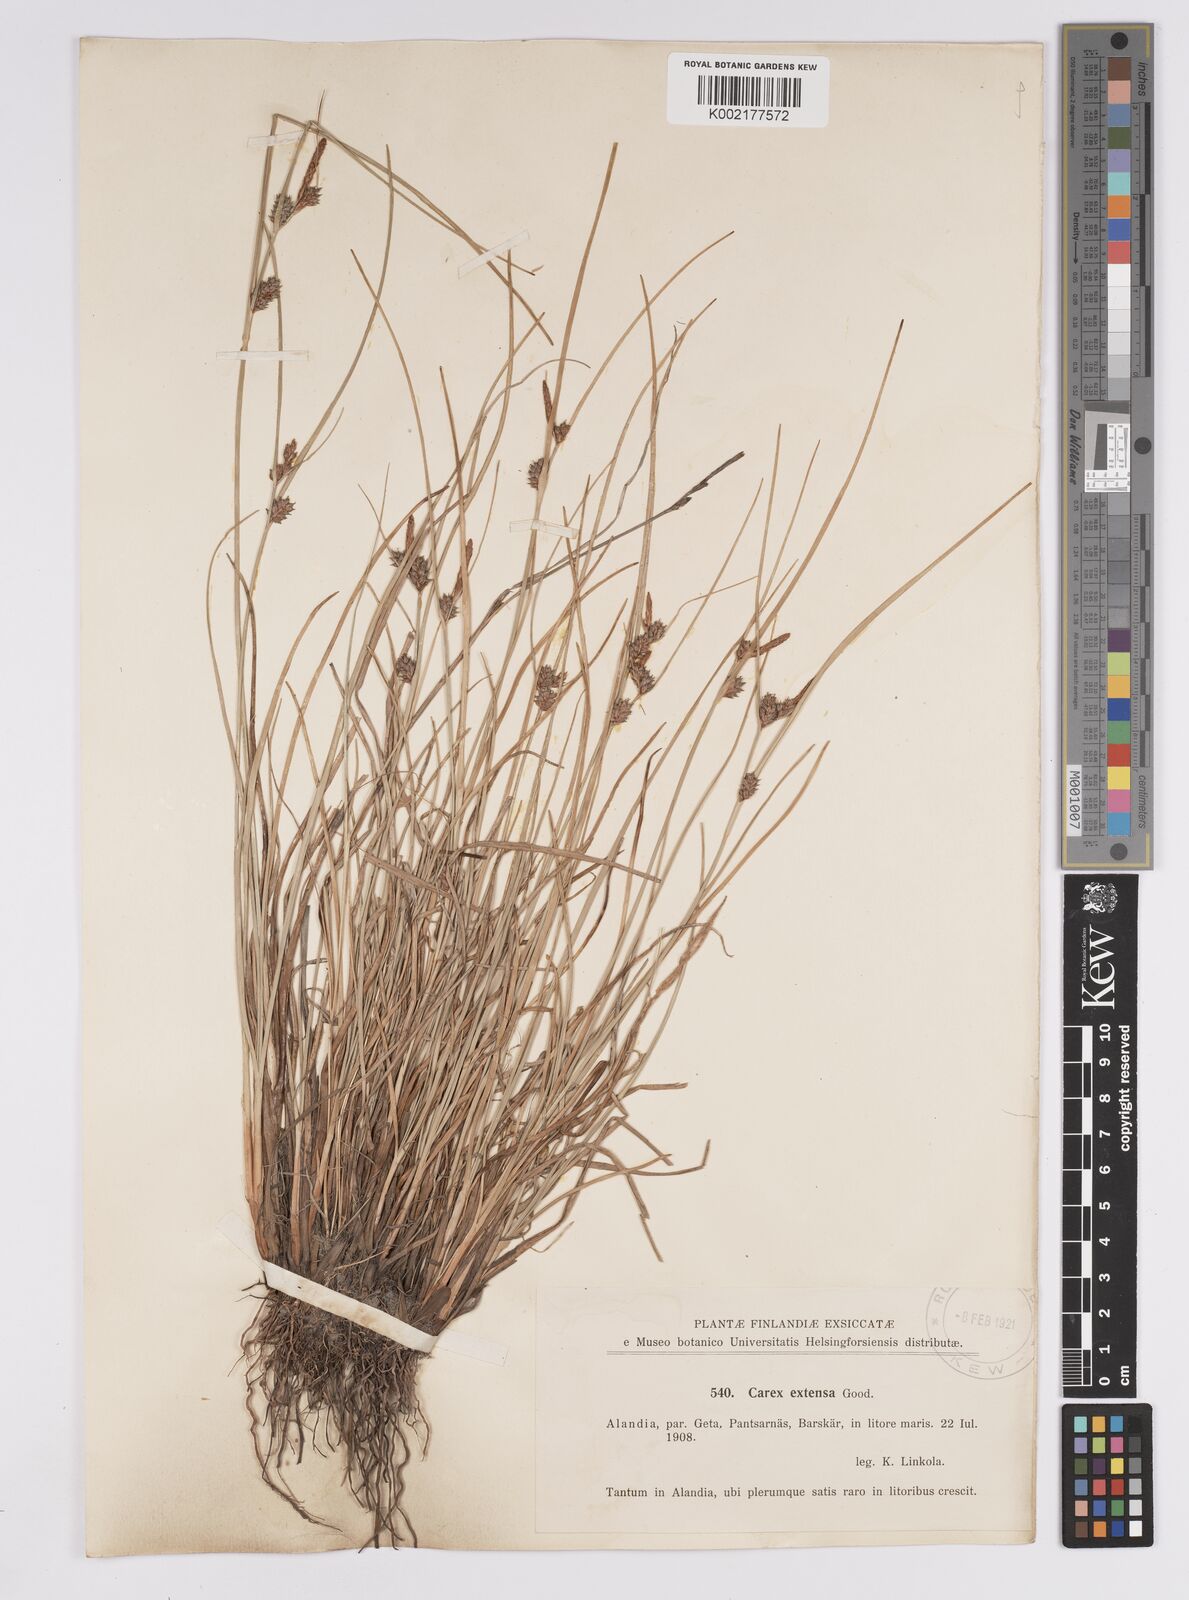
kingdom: Plantae
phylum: Tracheophyta
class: Liliopsida
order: Poales
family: Cyperaceae
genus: Carex
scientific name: Carex extensa
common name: Long-bracted sedge
